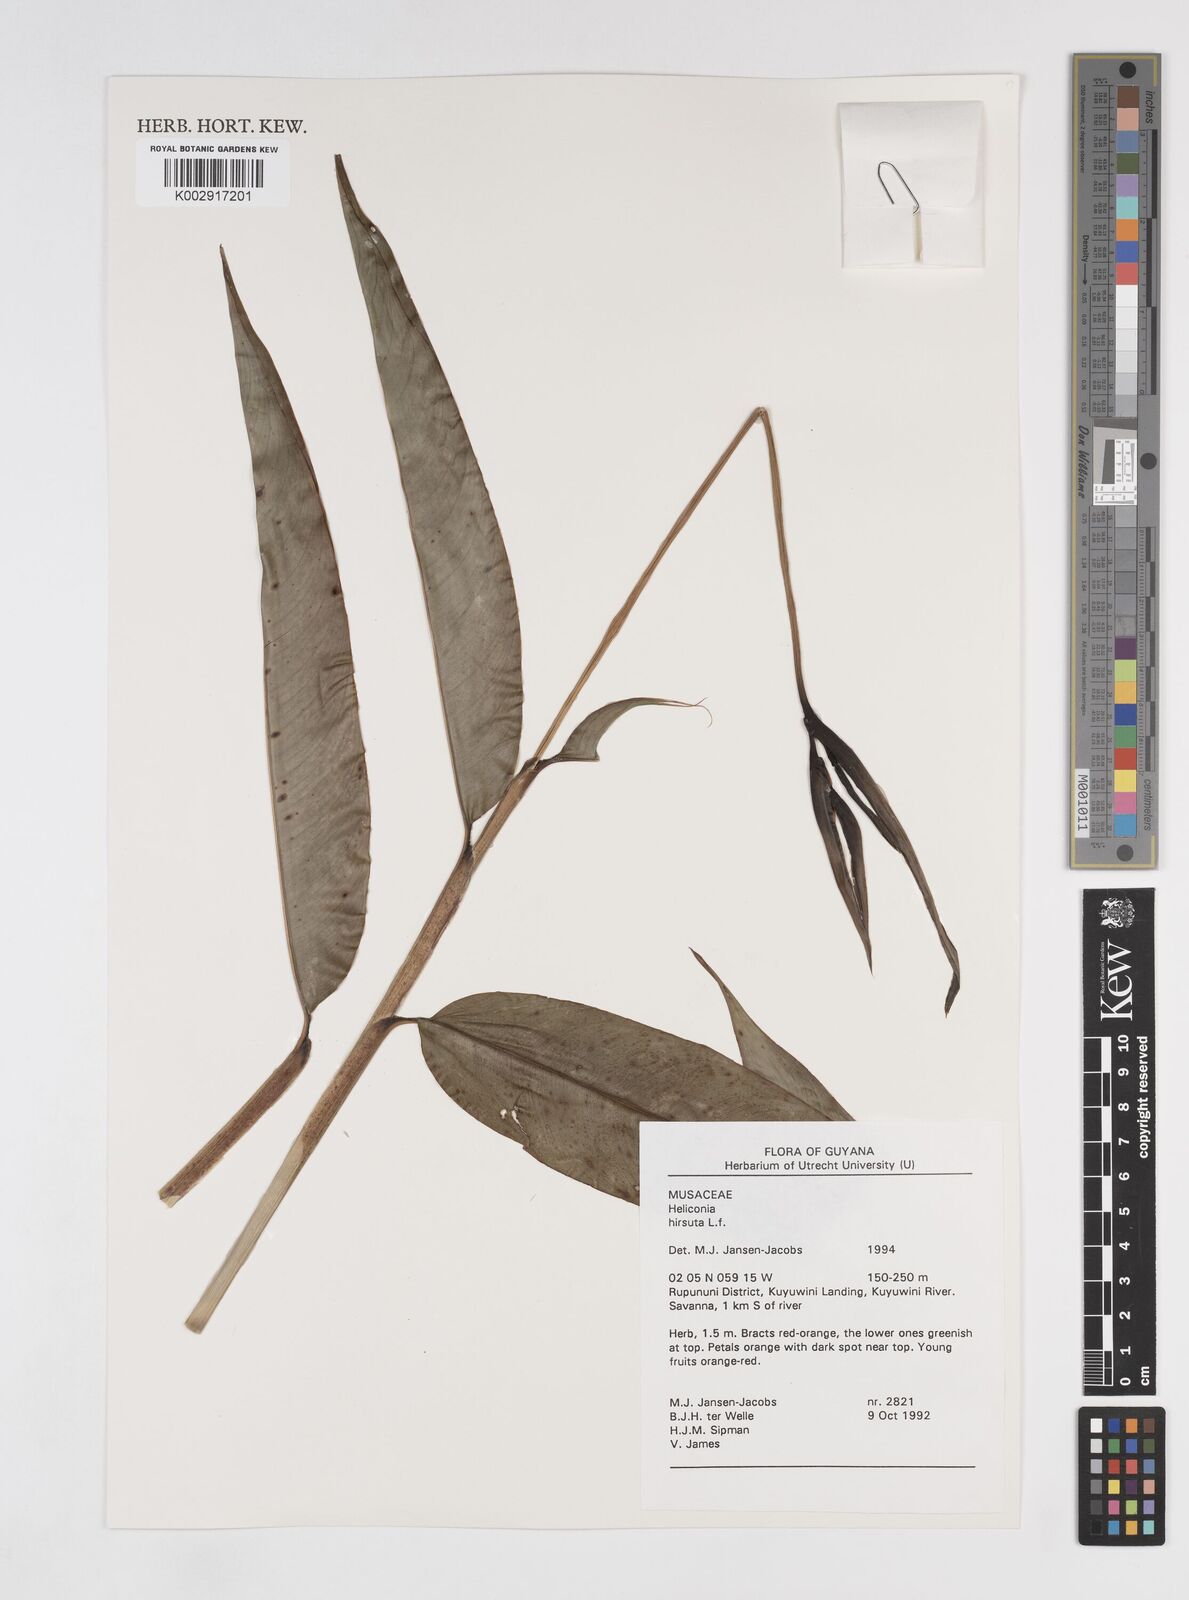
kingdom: Plantae
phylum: Tracheophyta
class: Liliopsida
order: Zingiberales
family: Heliconiaceae
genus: Heliconia
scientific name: Heliconia hirsuta
